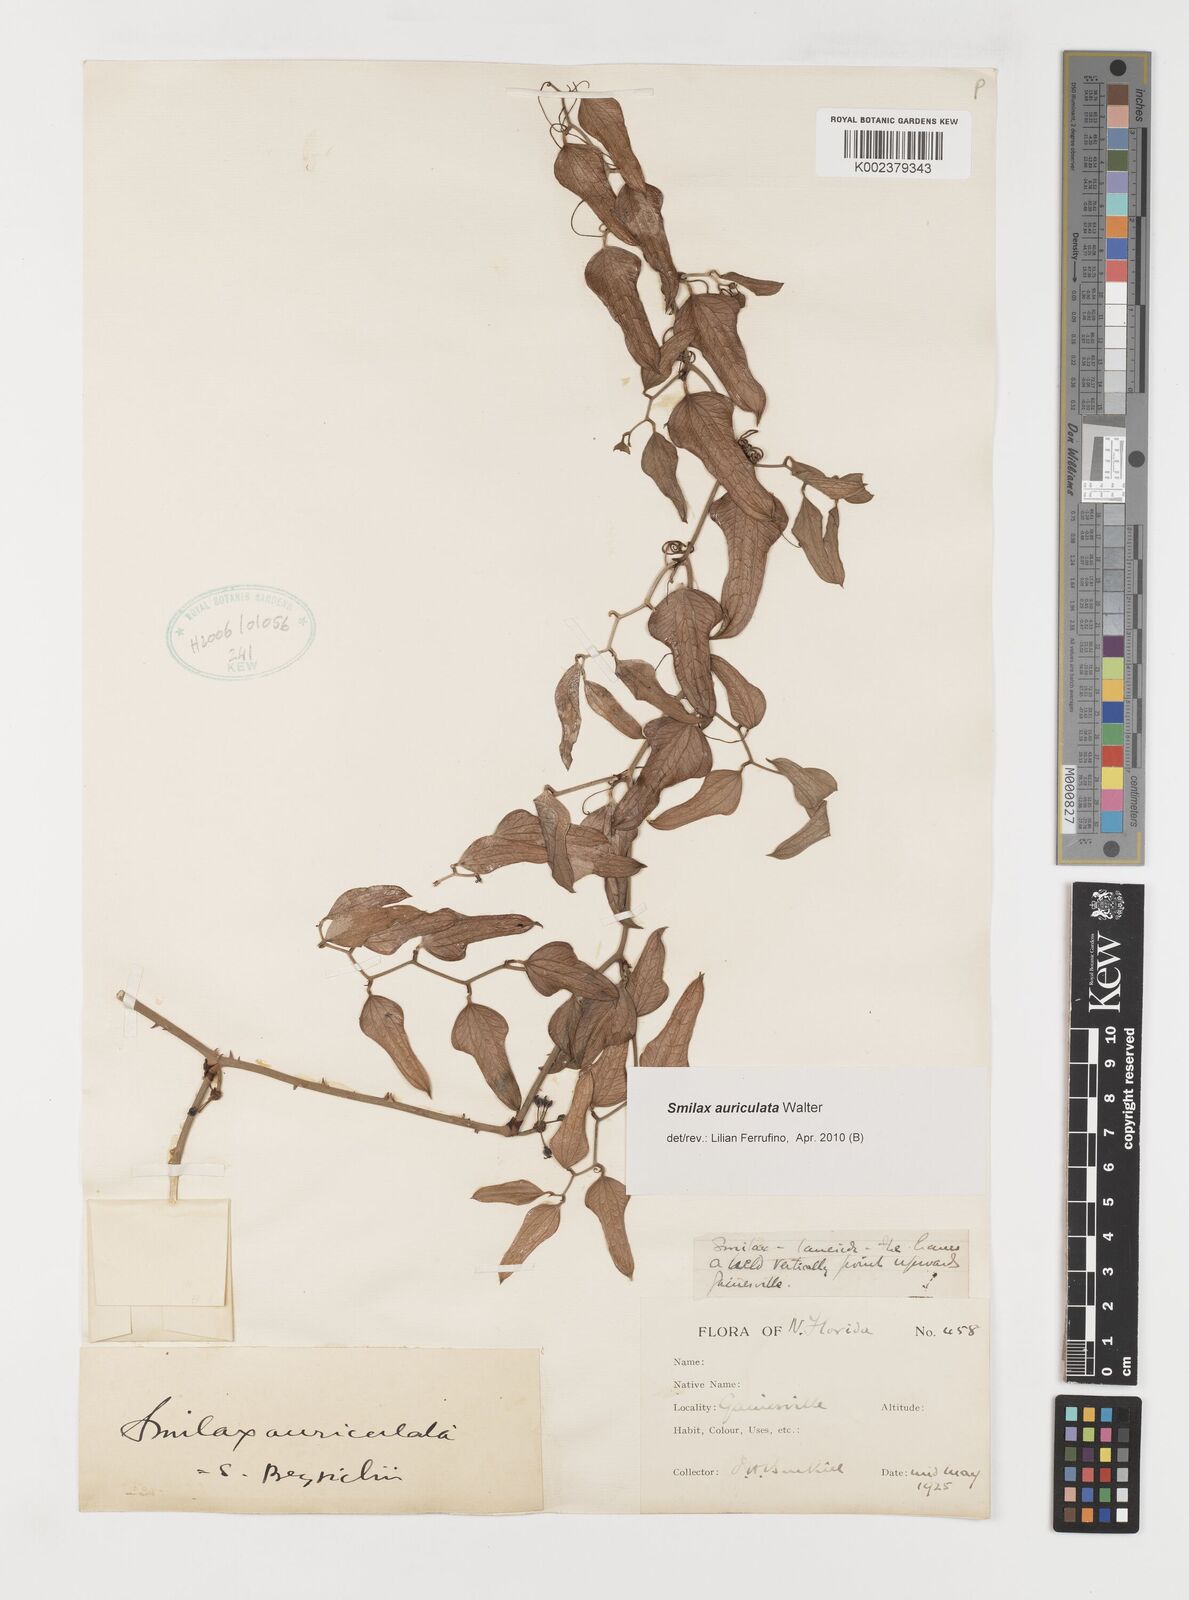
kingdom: Plantae
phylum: Tracheophyta
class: Liliopsida
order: Liliales
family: Smilacaceae
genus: Smilax
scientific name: Smilax auriculata
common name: Wild bamboo
